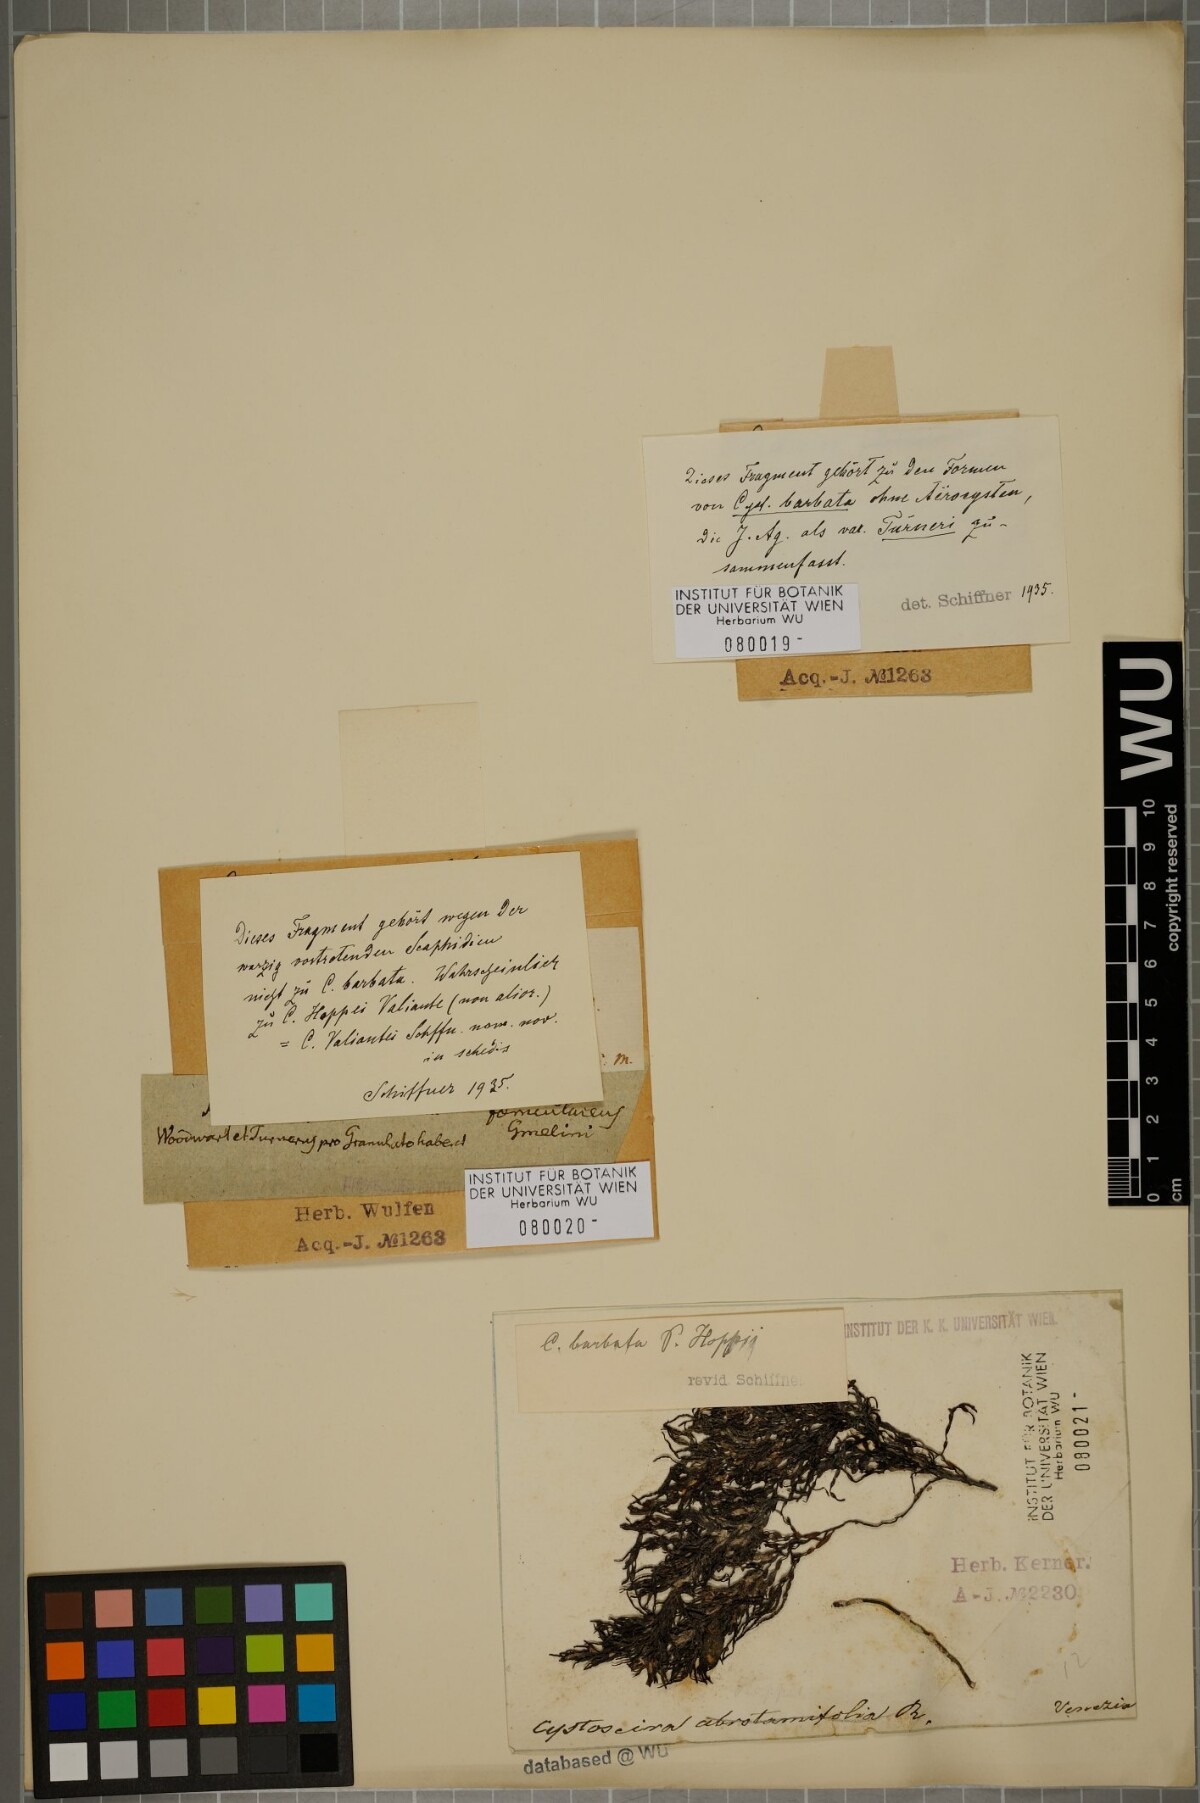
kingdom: Chromista
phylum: Ochrophyta
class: Phaeophyceae
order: Fucales
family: Sargassaceae
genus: Cystoseira
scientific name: Cystoseira Gongolaria barbata
